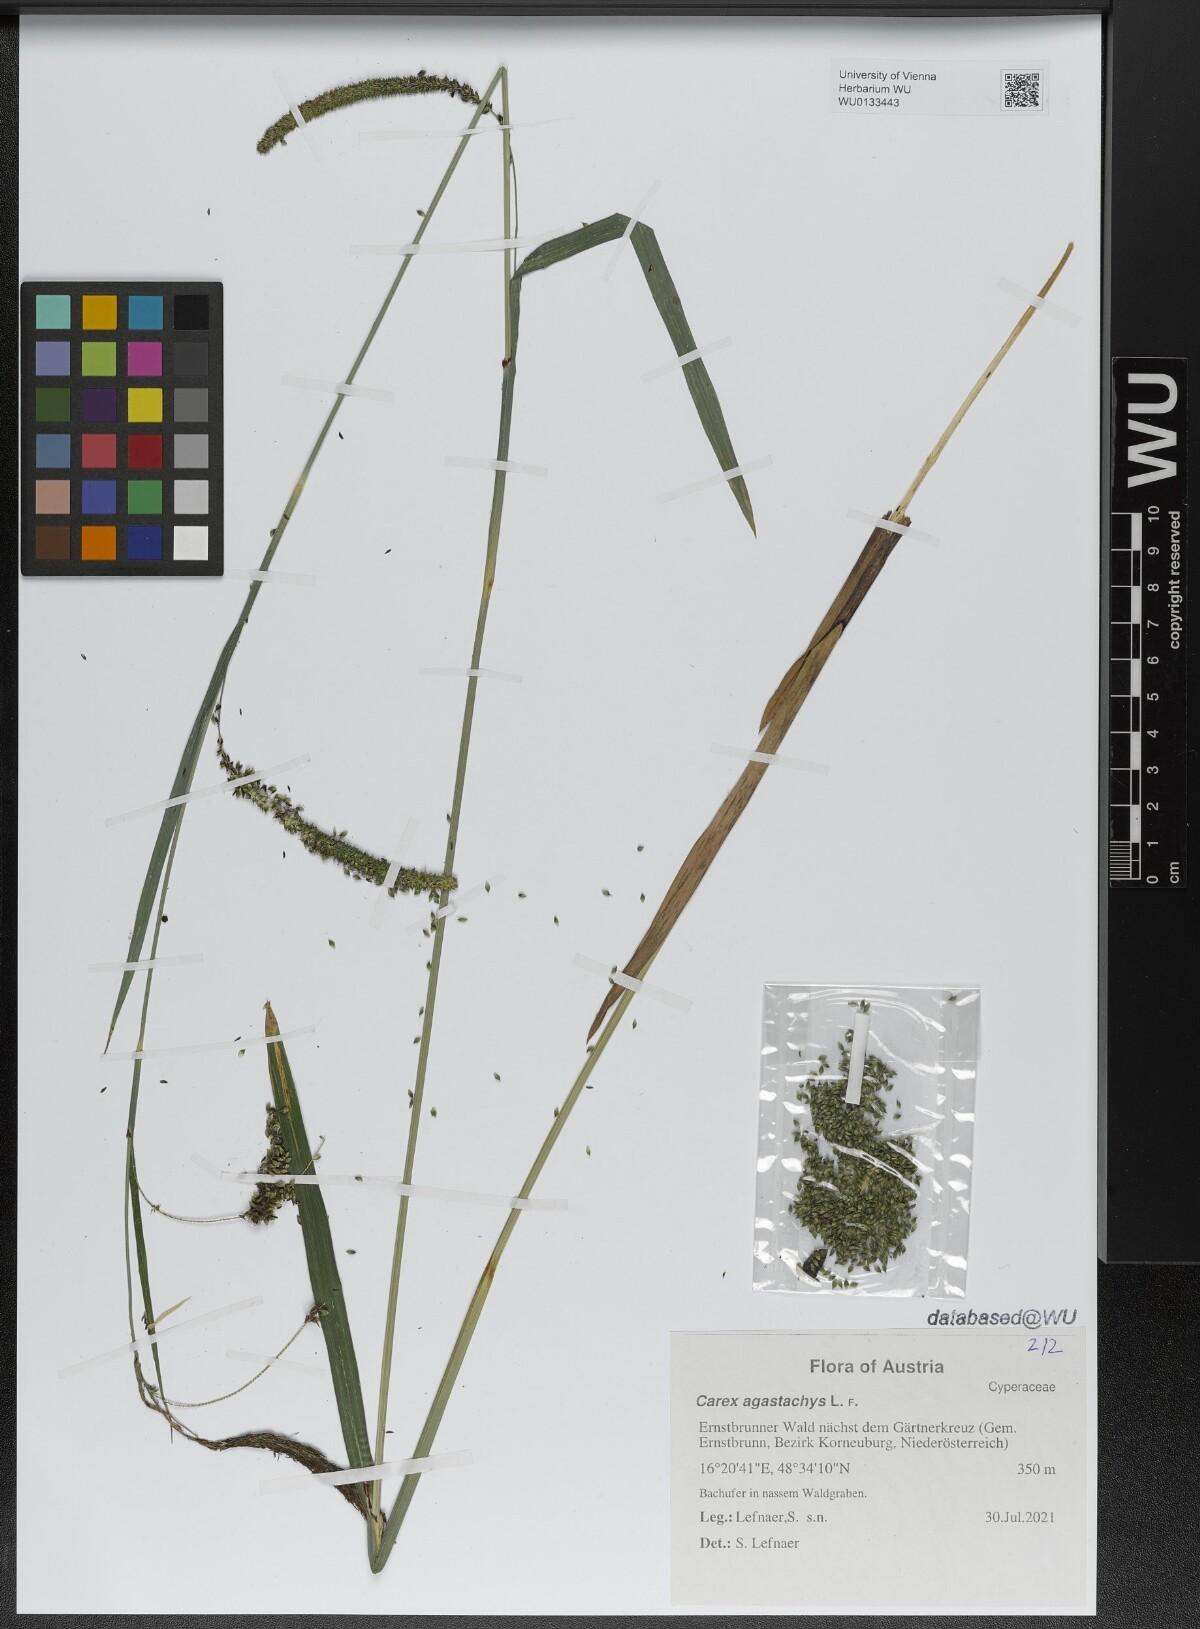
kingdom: Plantae
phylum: Tracheophyta
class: Liliopsida
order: Poales
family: Cyperaceae
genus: Carex
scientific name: Carex agastachys
